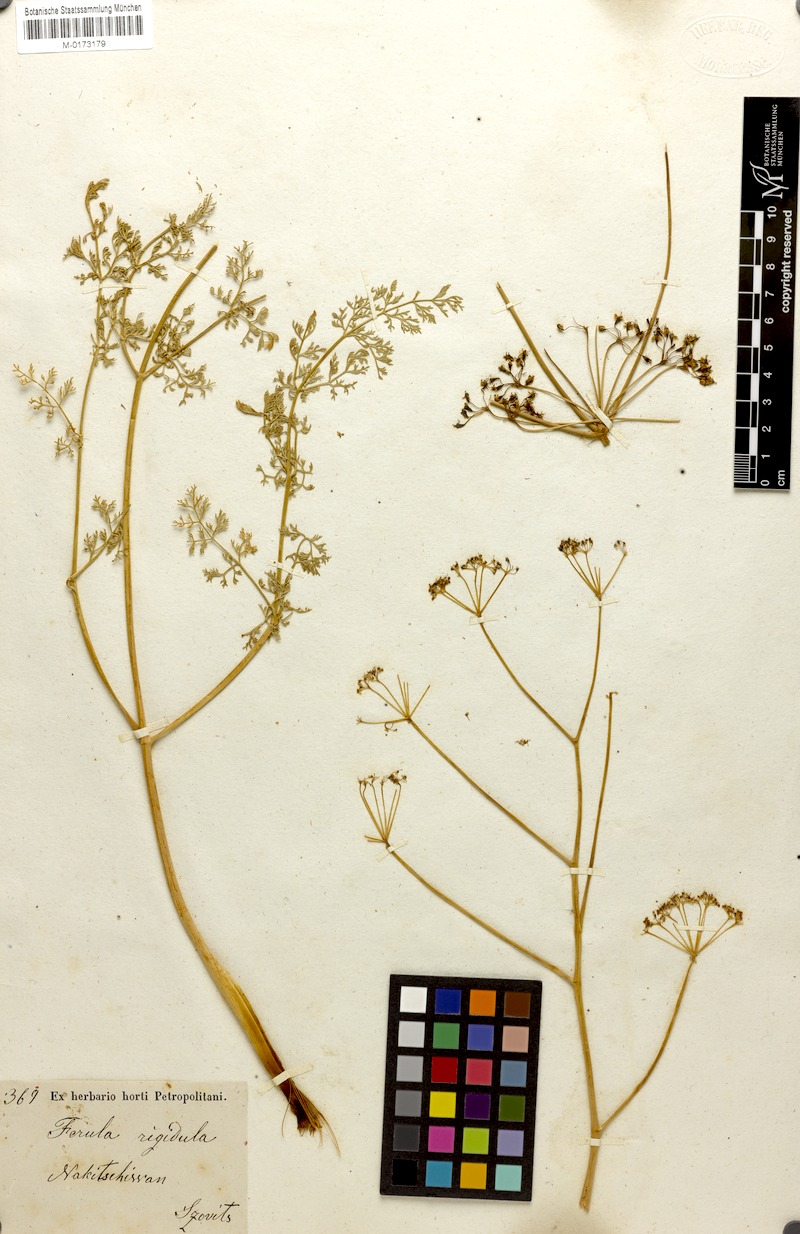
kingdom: Plantae
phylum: Tracheophyta
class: Magnoliopsida
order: Apiales
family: Apiaceae
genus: Ferula
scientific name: Ferula rigidula
